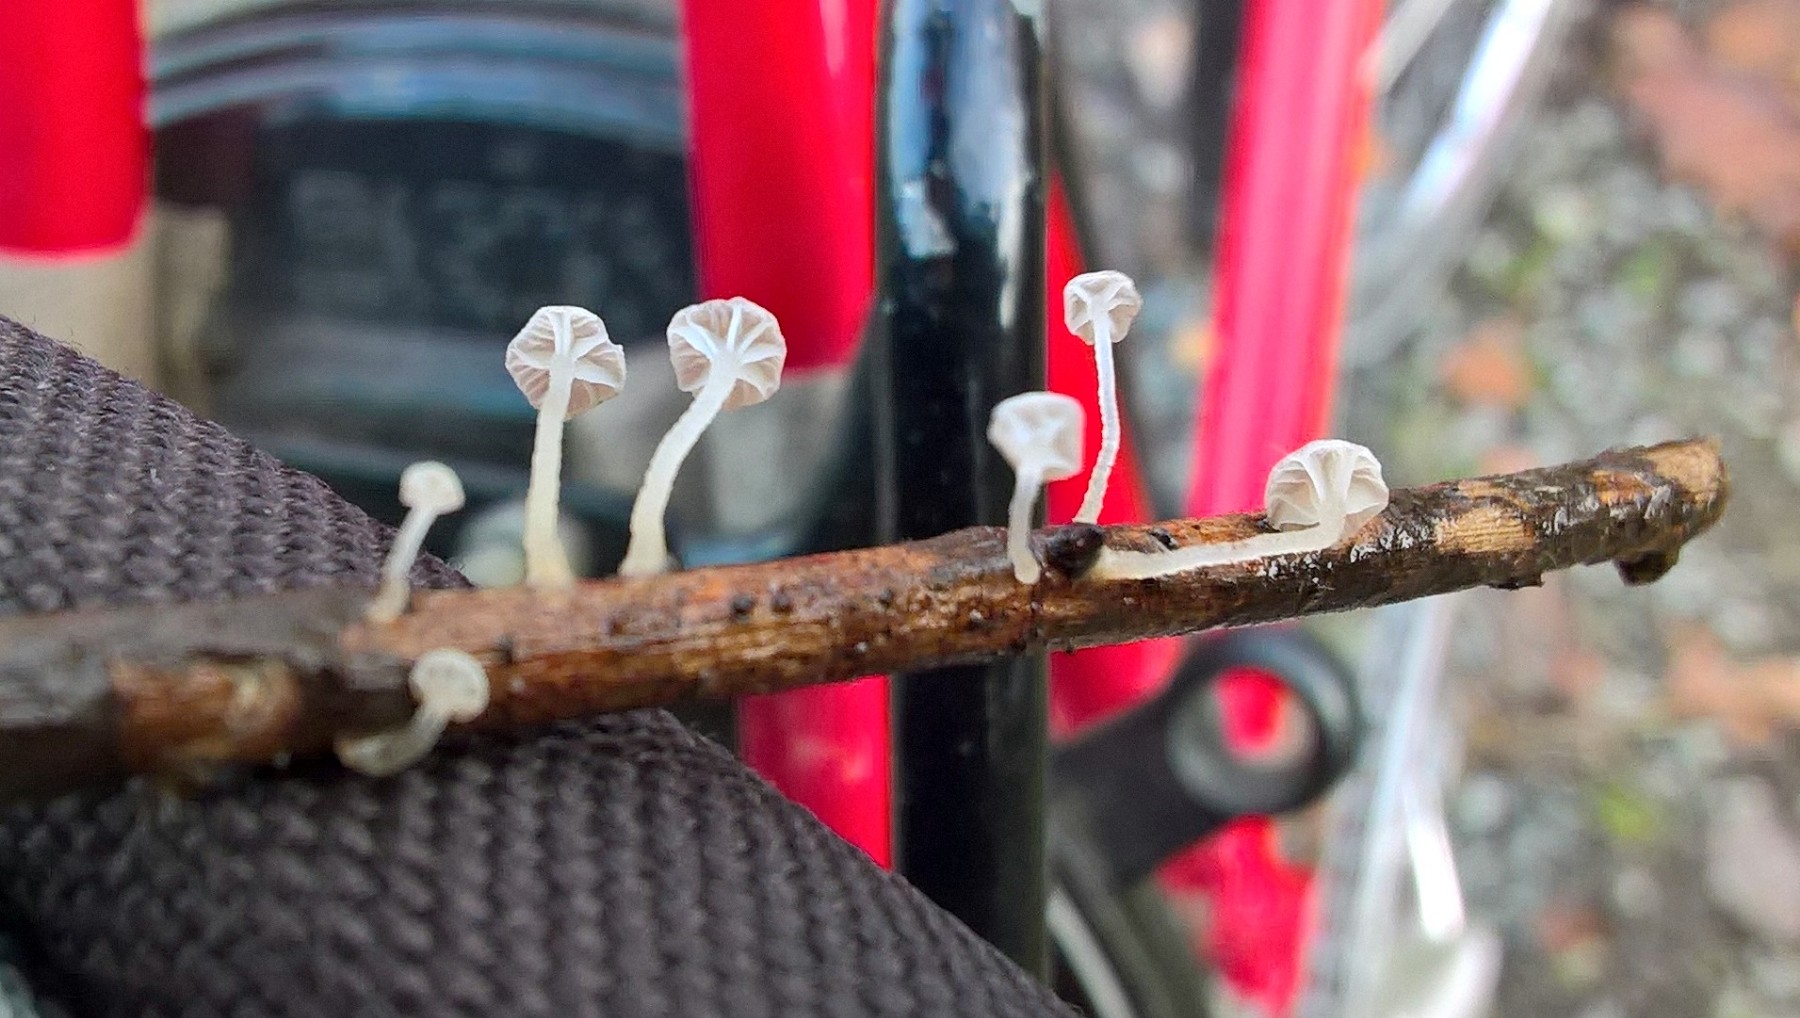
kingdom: Fungi
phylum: Basidiomycota
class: Agaricomycetes
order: Agaricales
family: Porotheleaceae
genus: Phloeomana
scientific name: Phloeomana speirea
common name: kvist-huesvamp
